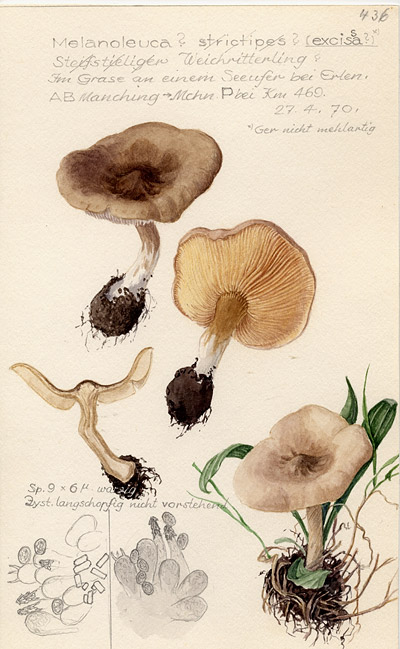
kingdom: Fungi
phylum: Basidiomycota
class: Agaricomycetes
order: Agaricales
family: Tricholomataceae
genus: Melanoleuca
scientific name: Melanoleuca exscissa
